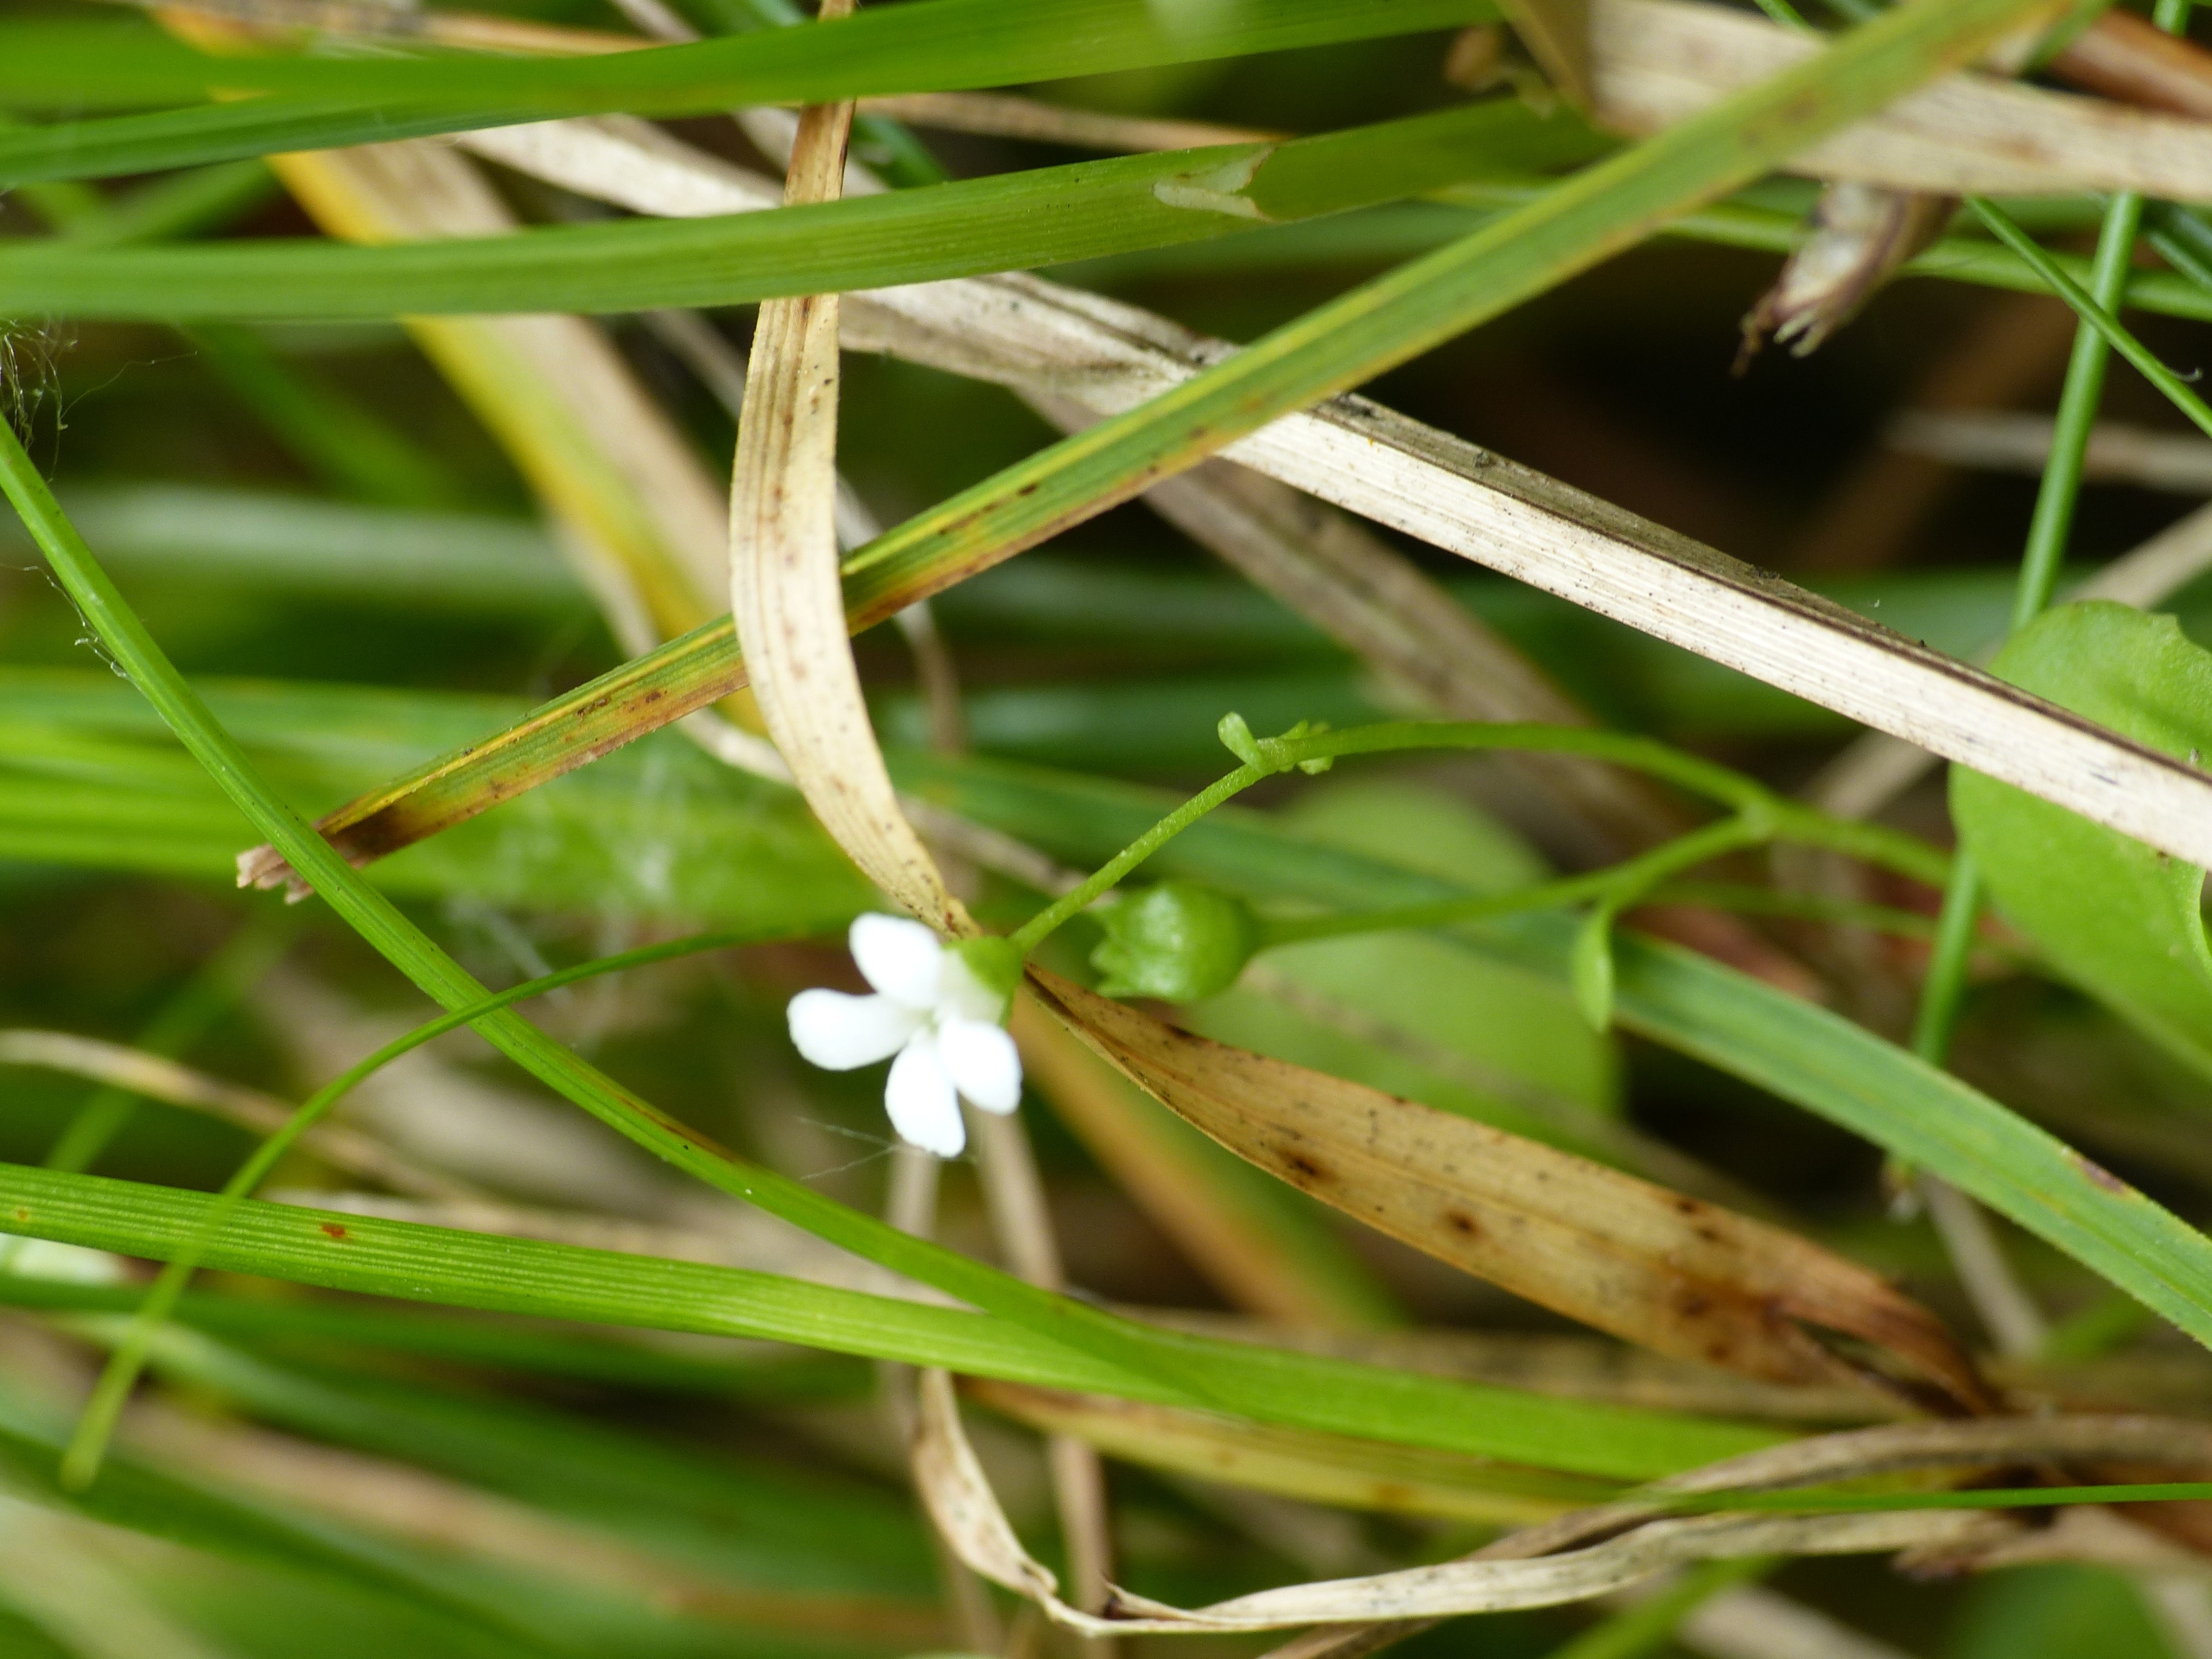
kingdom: Plantae
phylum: Tracheophyta
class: Magnoliopsida
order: Ericales
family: Primulaceae
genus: Samolus
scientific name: Samolus valerandi
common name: Samel
